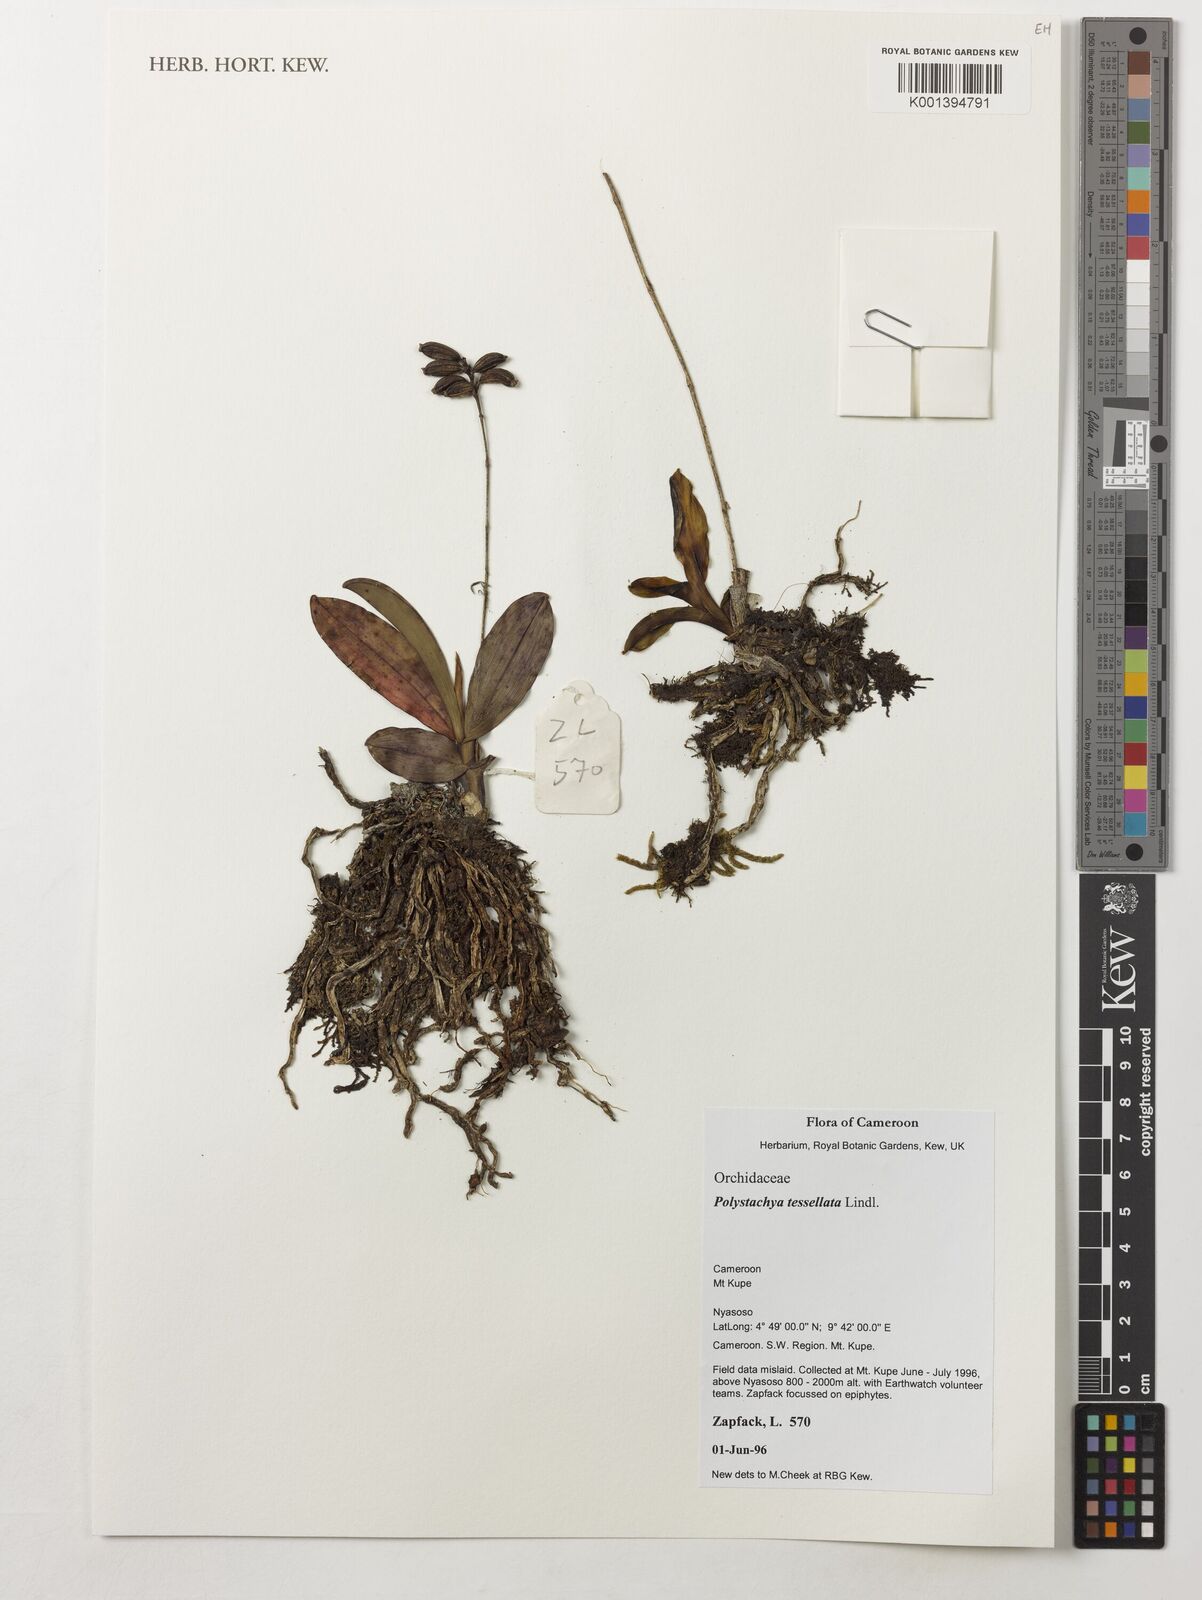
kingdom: Plantae
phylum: Tracheophyta
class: Liliopsida
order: Asparagales
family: Orchidaceae
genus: Polystachya
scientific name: Polystachya concreta
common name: Greater yellowspike orchid
